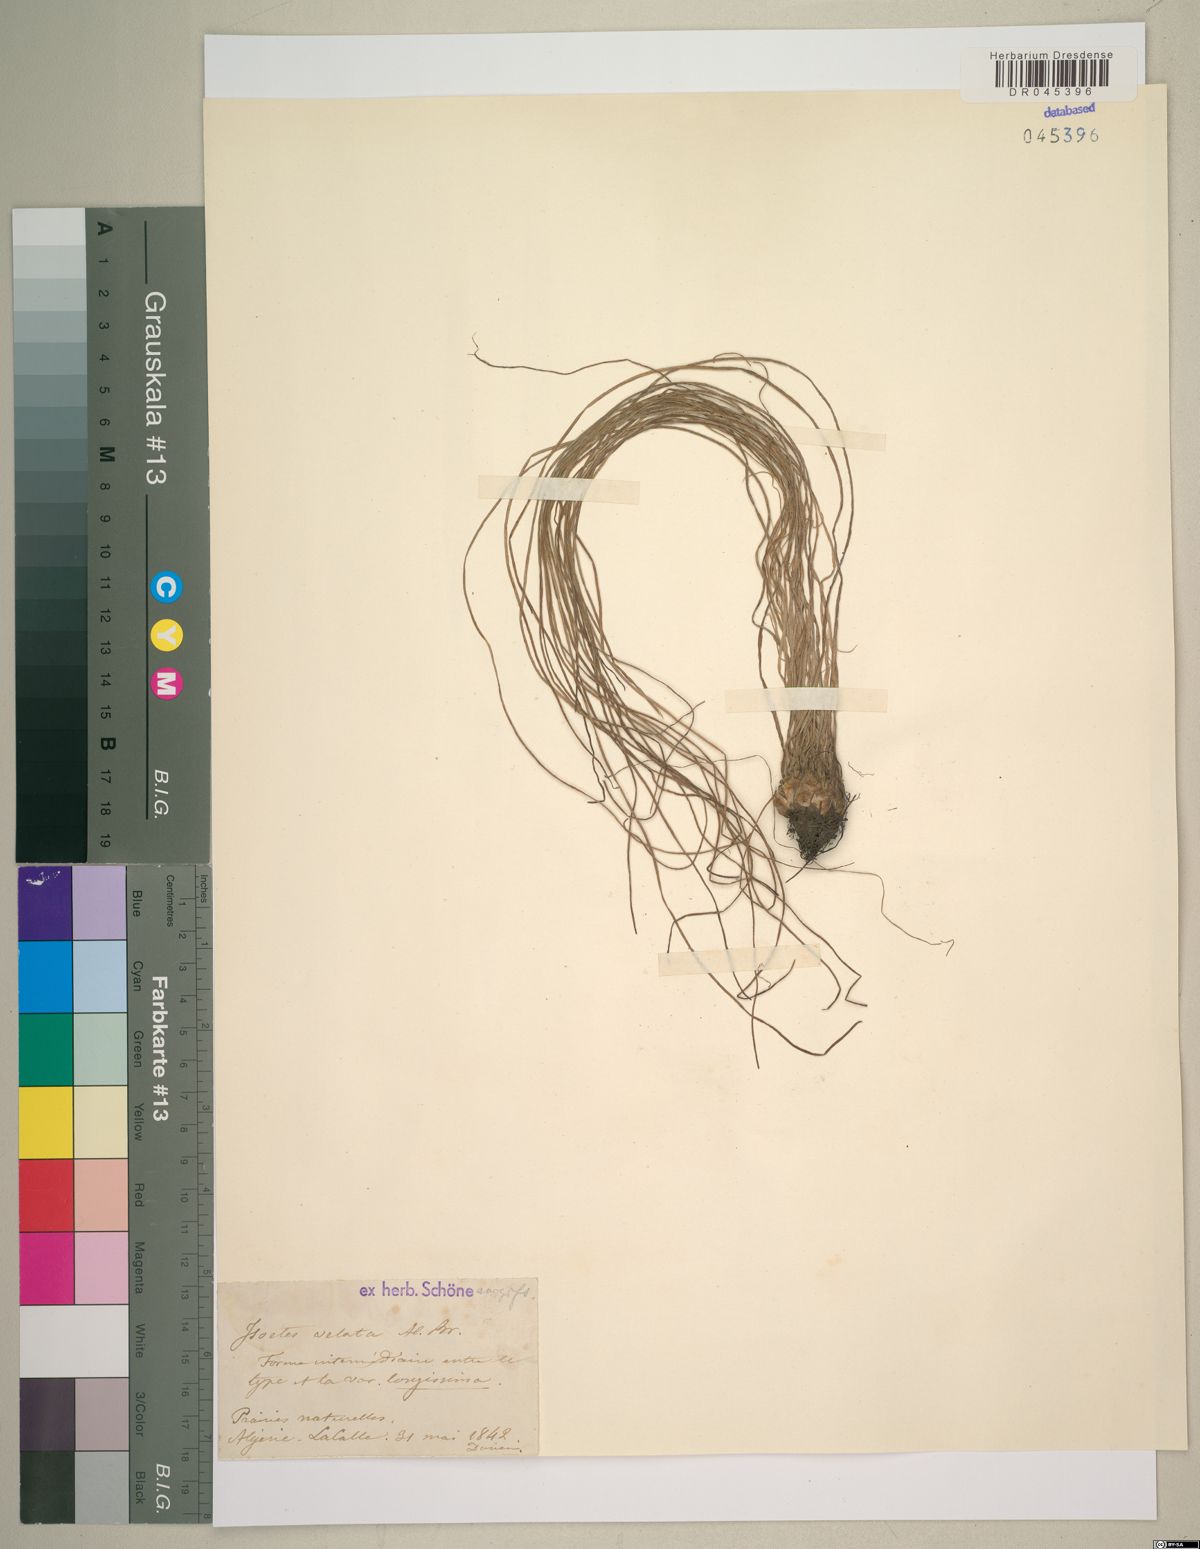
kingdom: Plantae
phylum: Tracheophyta
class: Lycopodiopsida
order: Isoetales
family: Isoetaceae
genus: Isoetes
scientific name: Isoetes longissima
